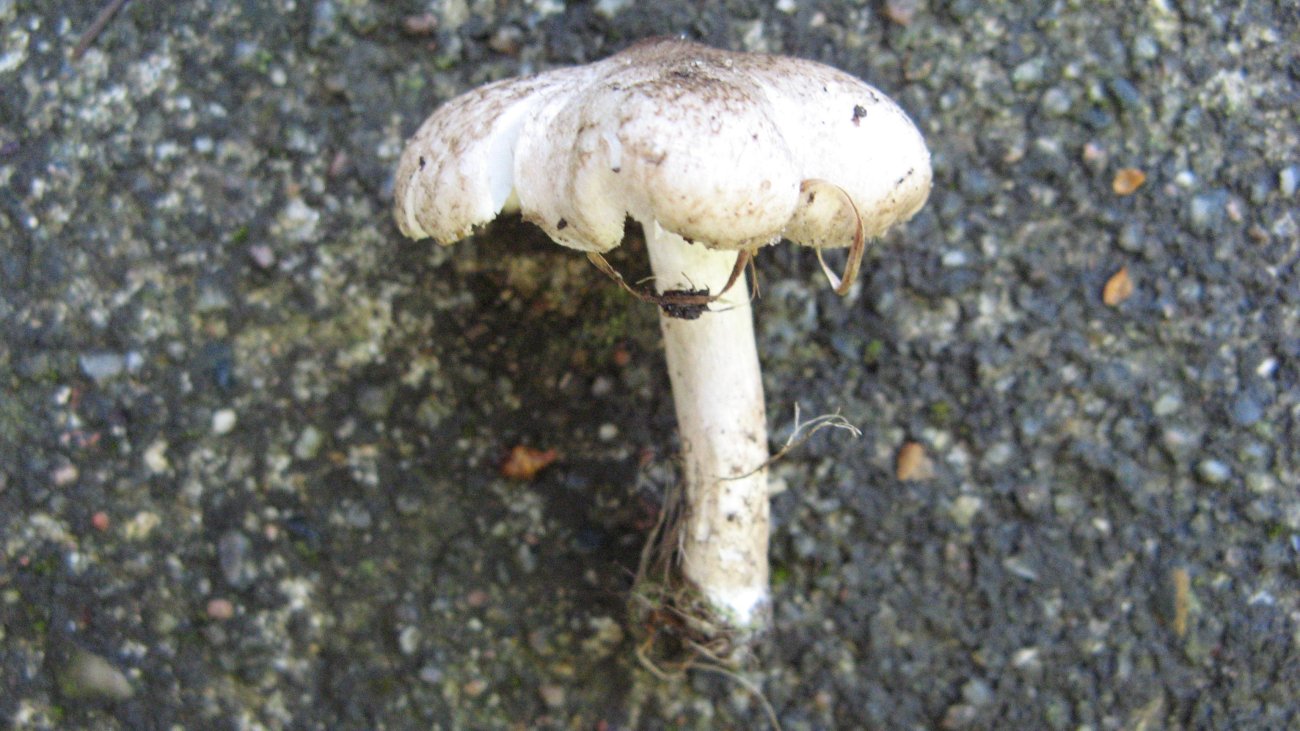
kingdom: Fungi
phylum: Basidiomycota
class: Agaricomycetes
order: Agaricales
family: Tricholomataceae
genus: Tricholoma
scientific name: Tricholoma scalpturatum
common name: gulplettet ridderhat
